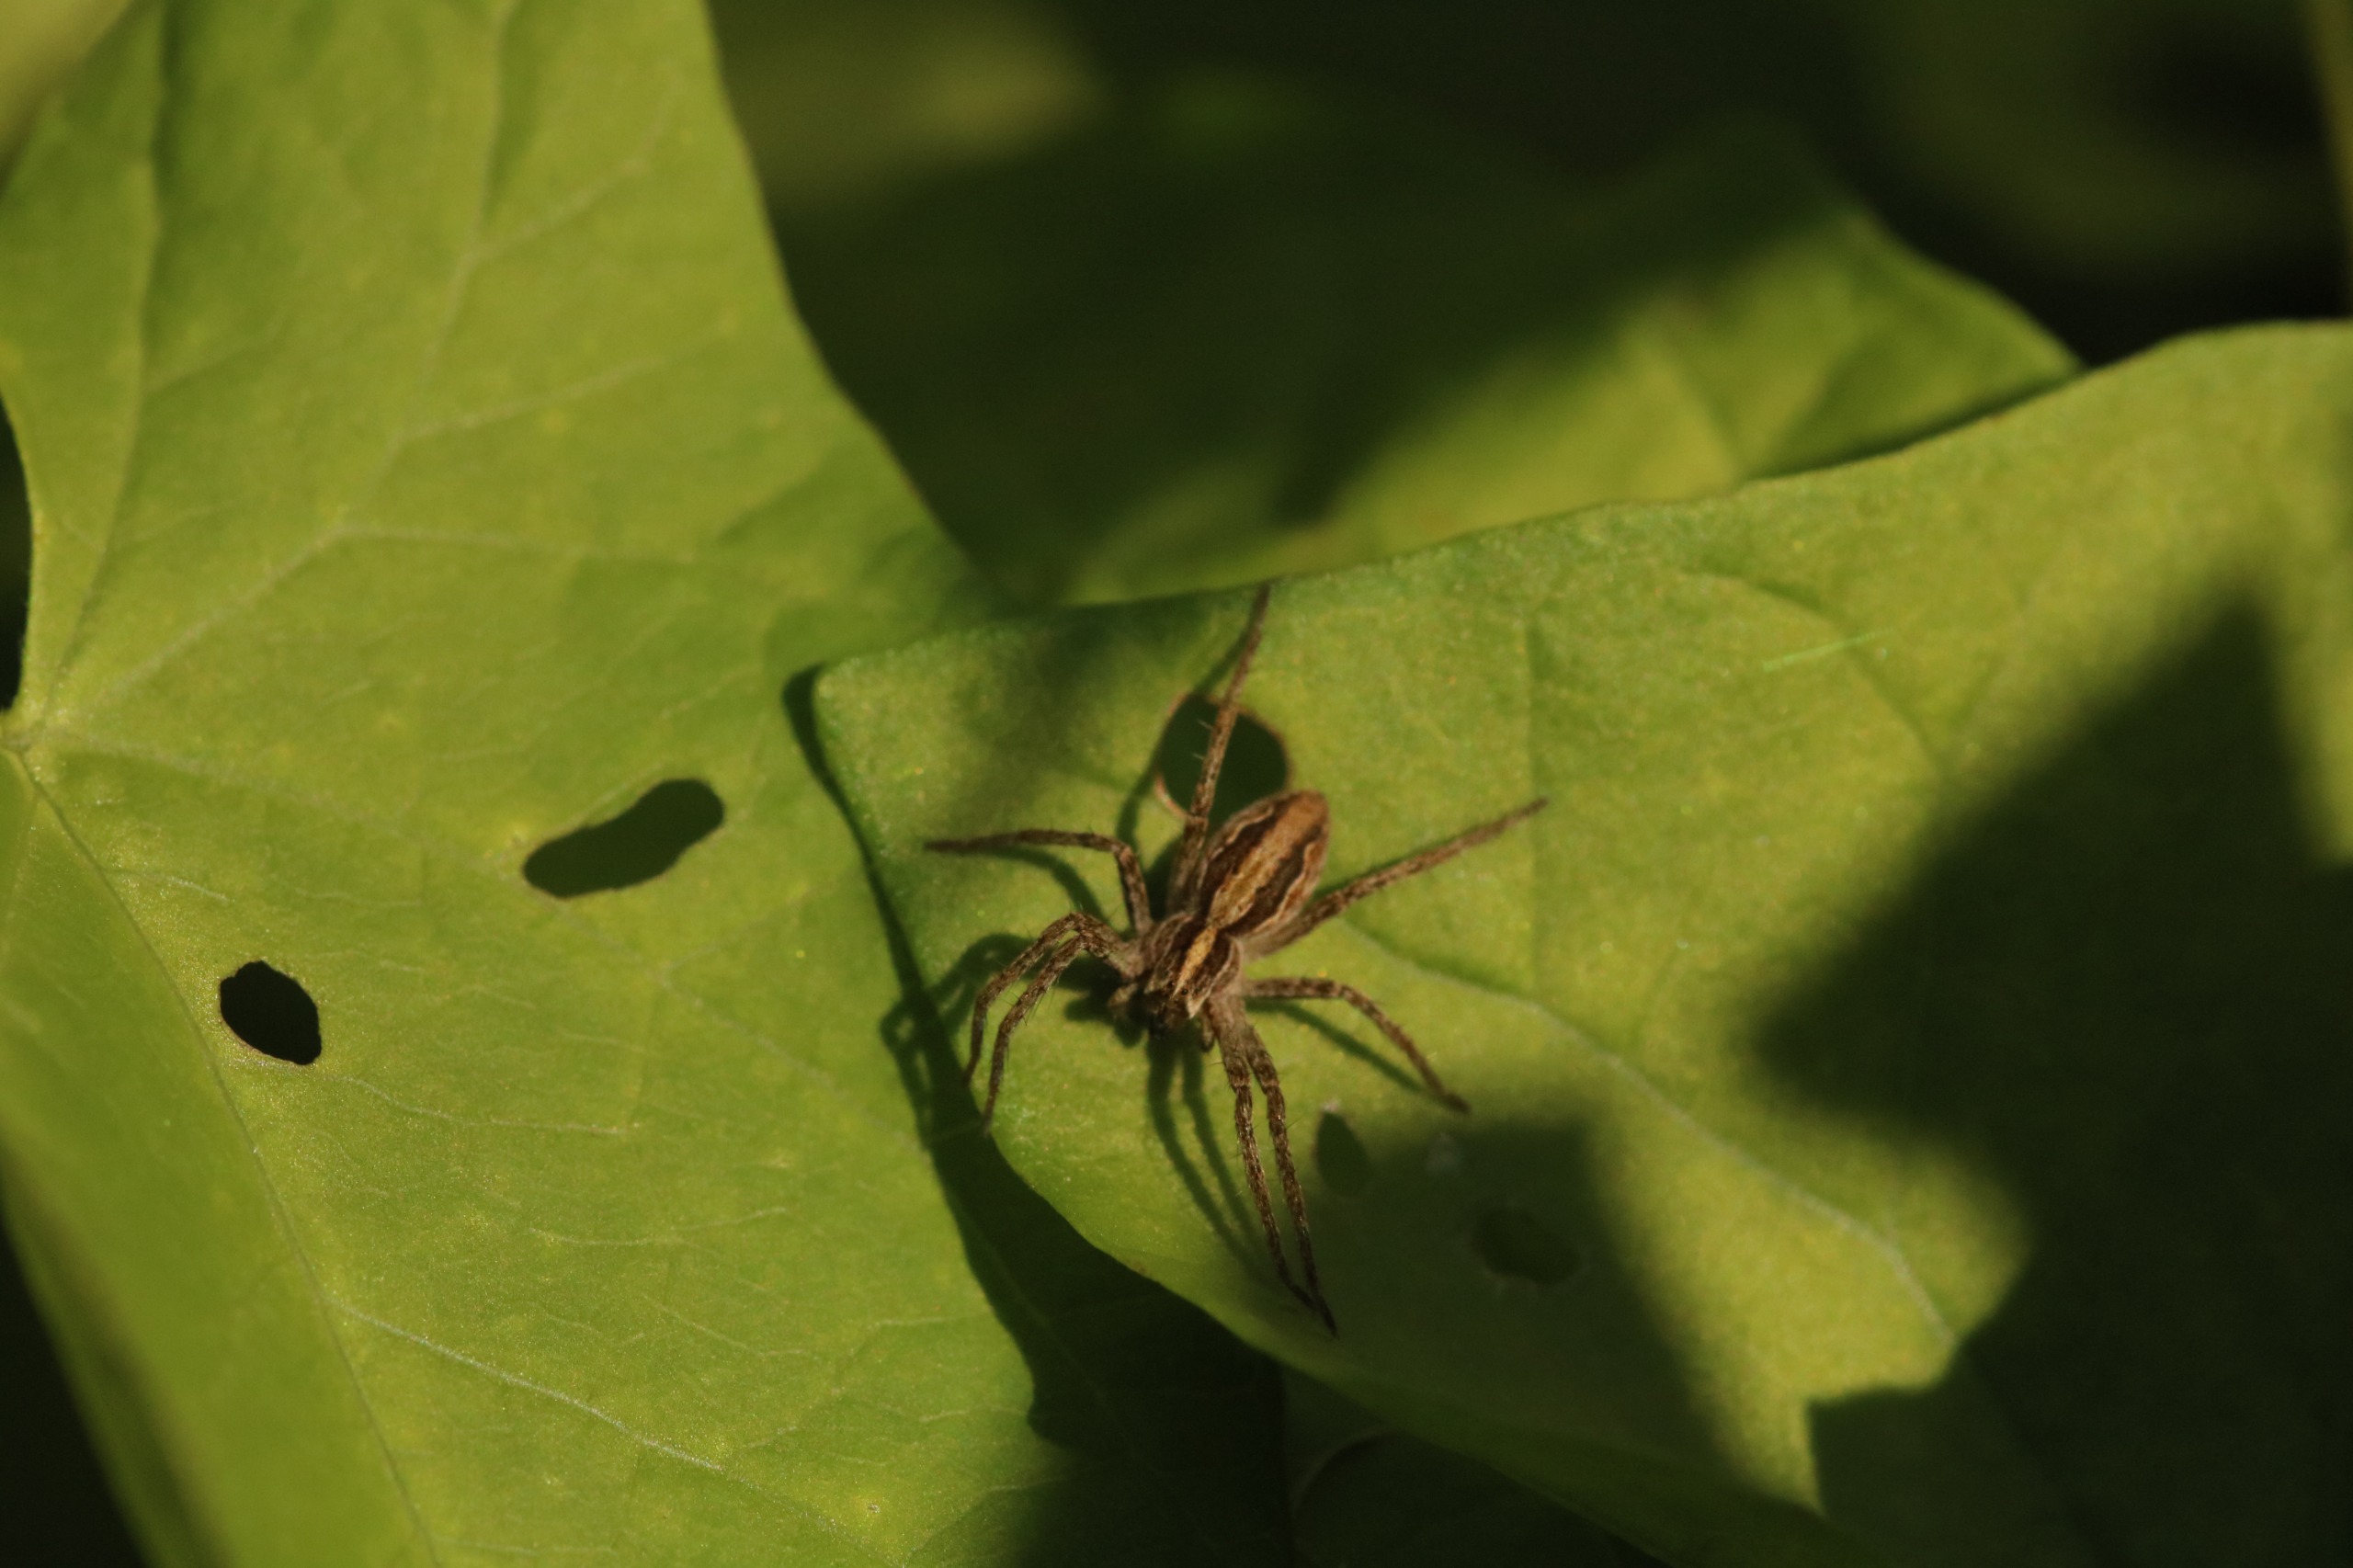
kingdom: Animalia
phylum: Arthropoda
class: Arachnida
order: Araneae
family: Pisauridae
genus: Pisaura
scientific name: Pisaura mirabilis
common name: Almindelig rovedderkop
